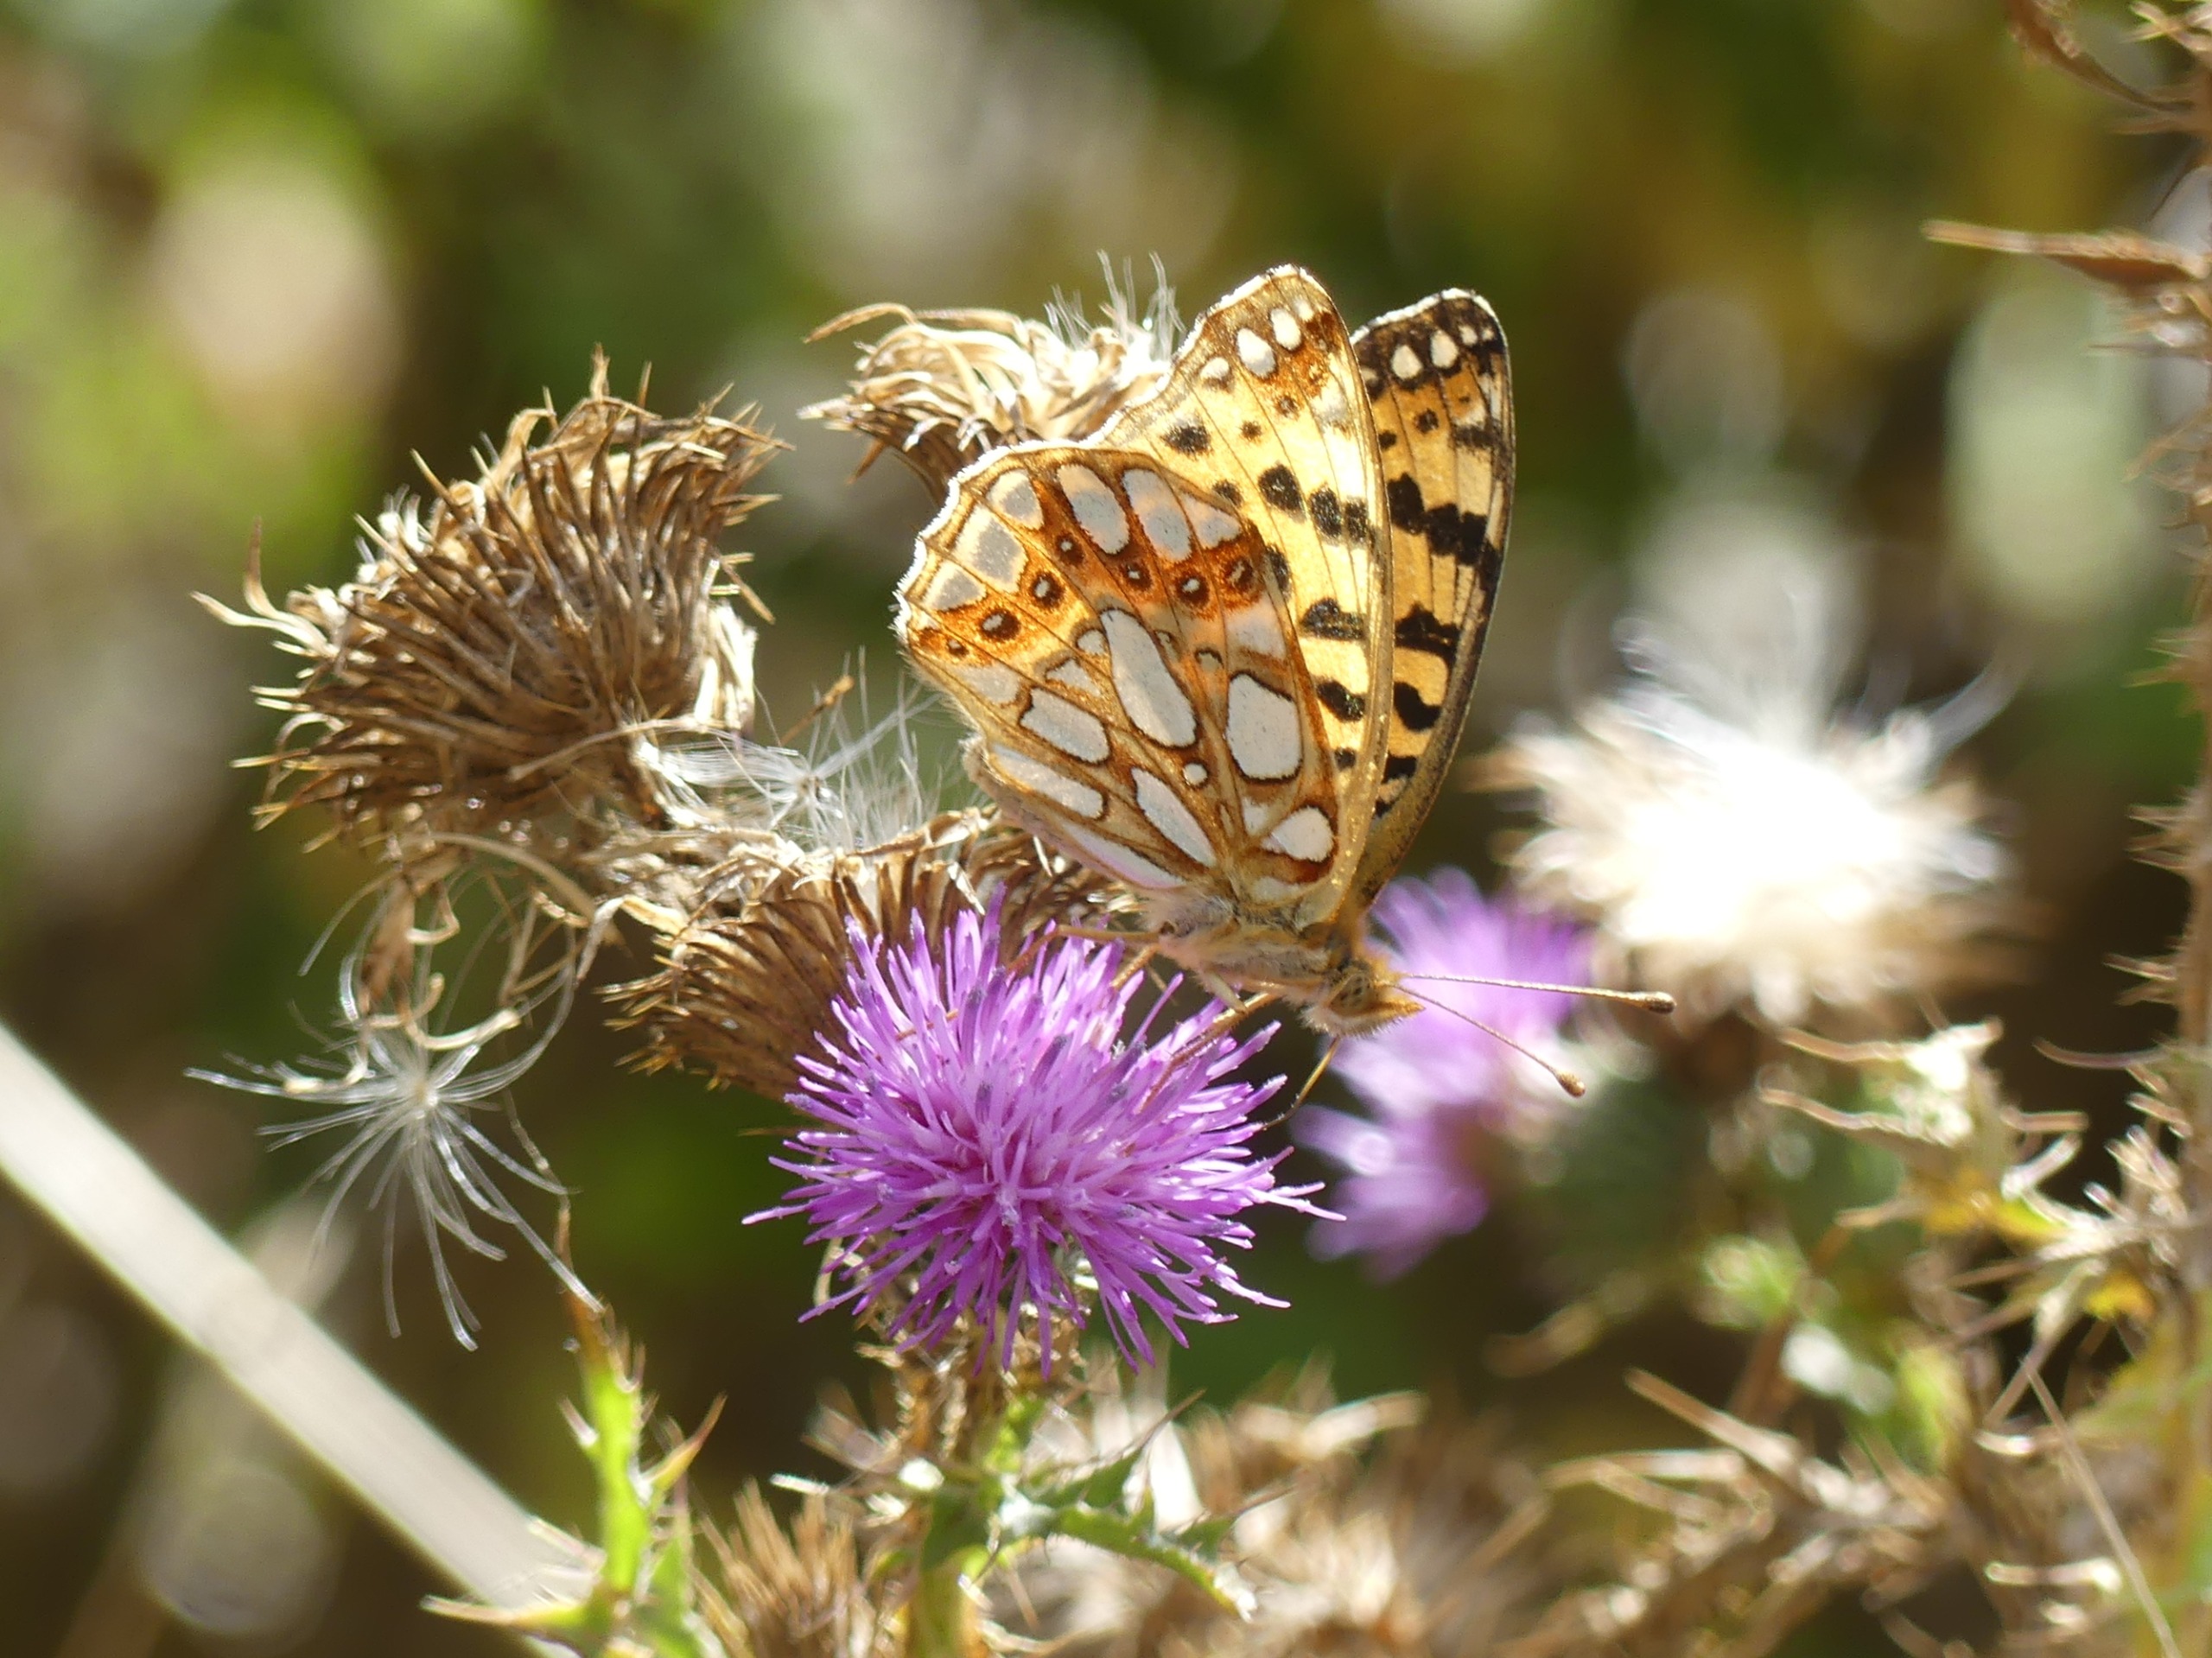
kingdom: Animalia
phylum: Arthropoda
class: Insecta
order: Lepidoptera
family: Nymphalidae
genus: Issoria
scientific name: Issoria lathonia
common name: Storplettet perlemorsommerfugl
